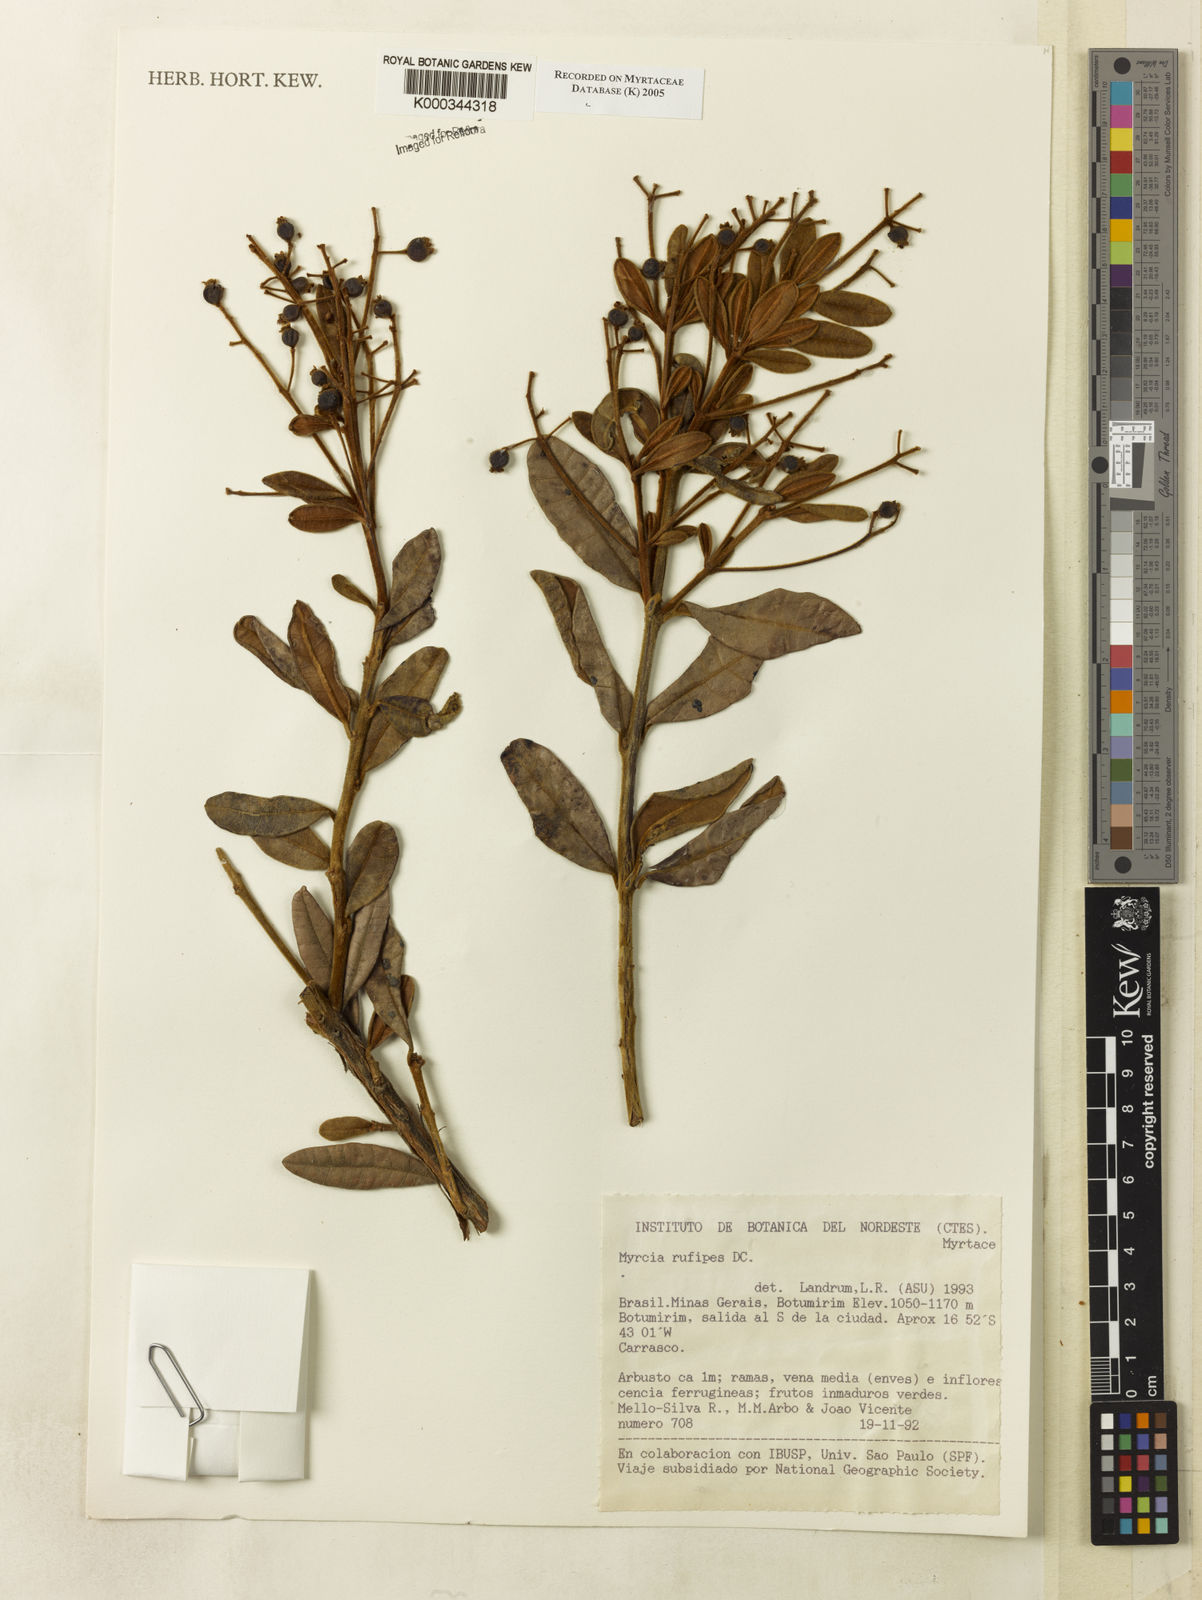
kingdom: Plantae
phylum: Tracheophyta
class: Magnoliopsida
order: Myrtales
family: Myrtaceae
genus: Myrcia
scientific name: Myrcia rufipes
